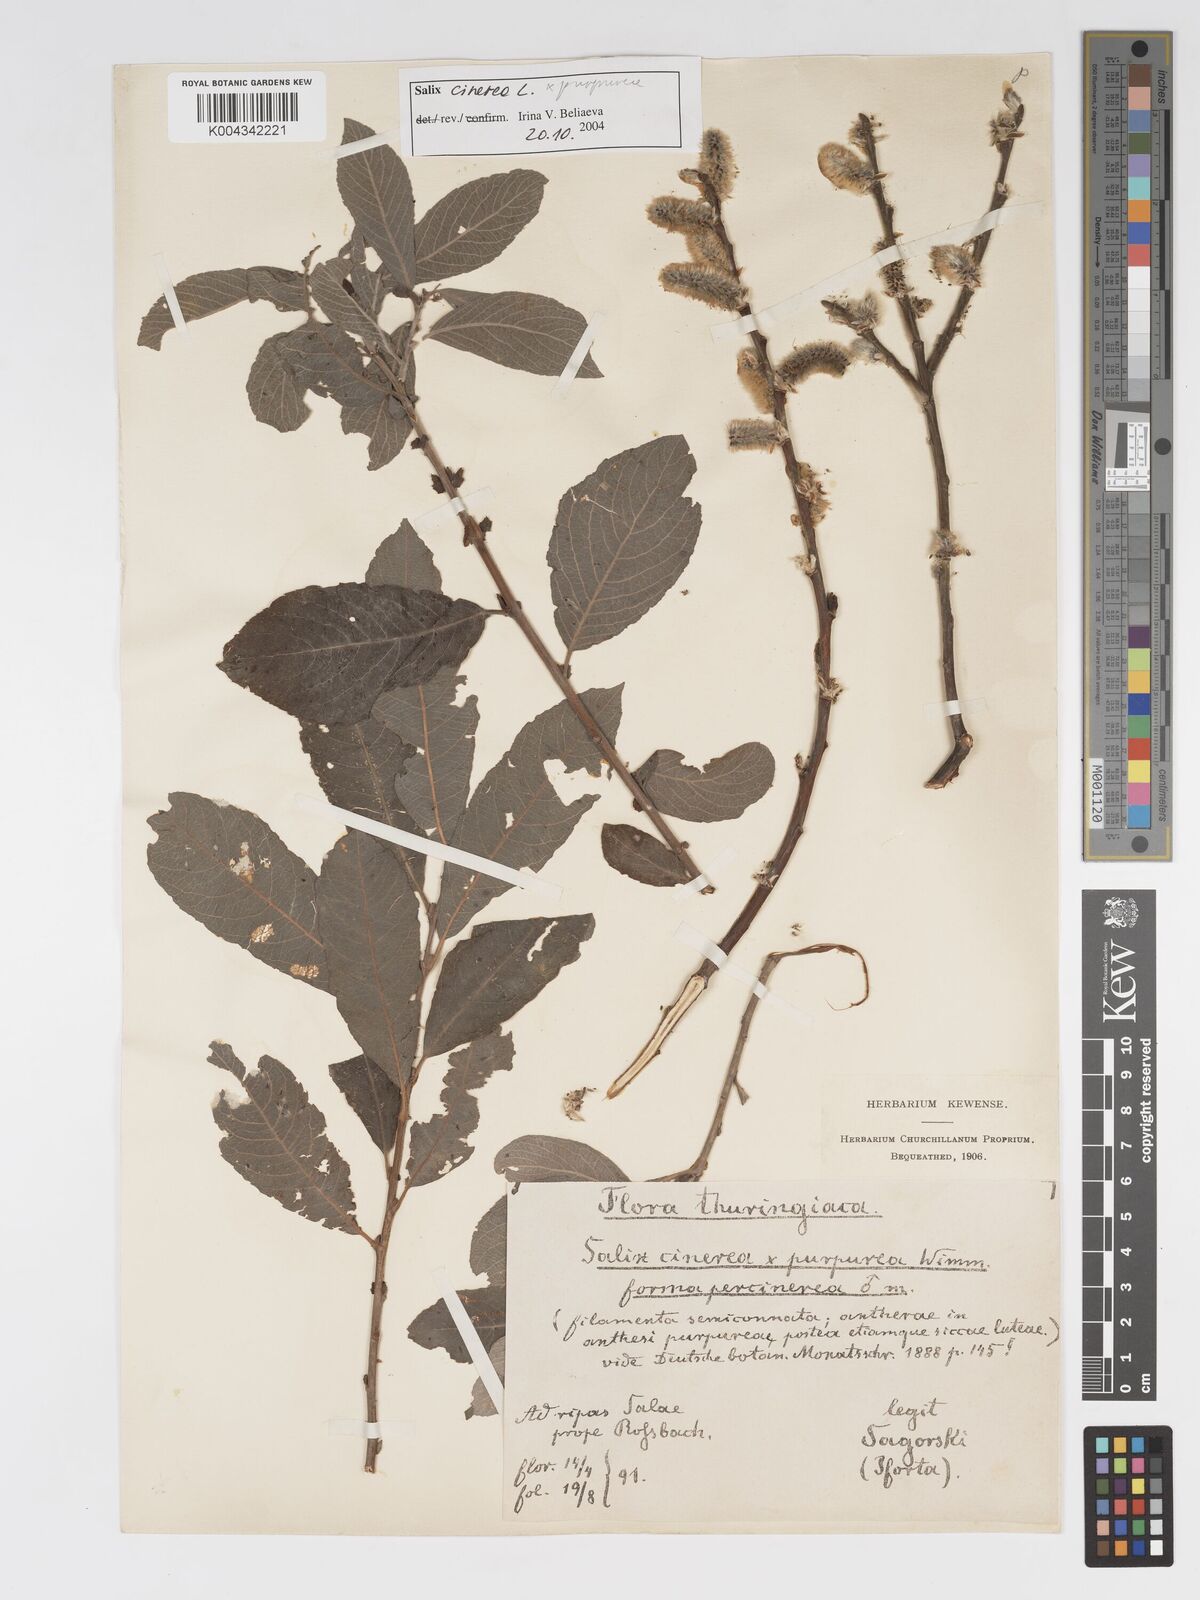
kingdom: Plantae
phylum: Tracheophyta
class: Magnoliopsida
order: Malpighiales
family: Salicaceae
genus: Salix
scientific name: Salix
